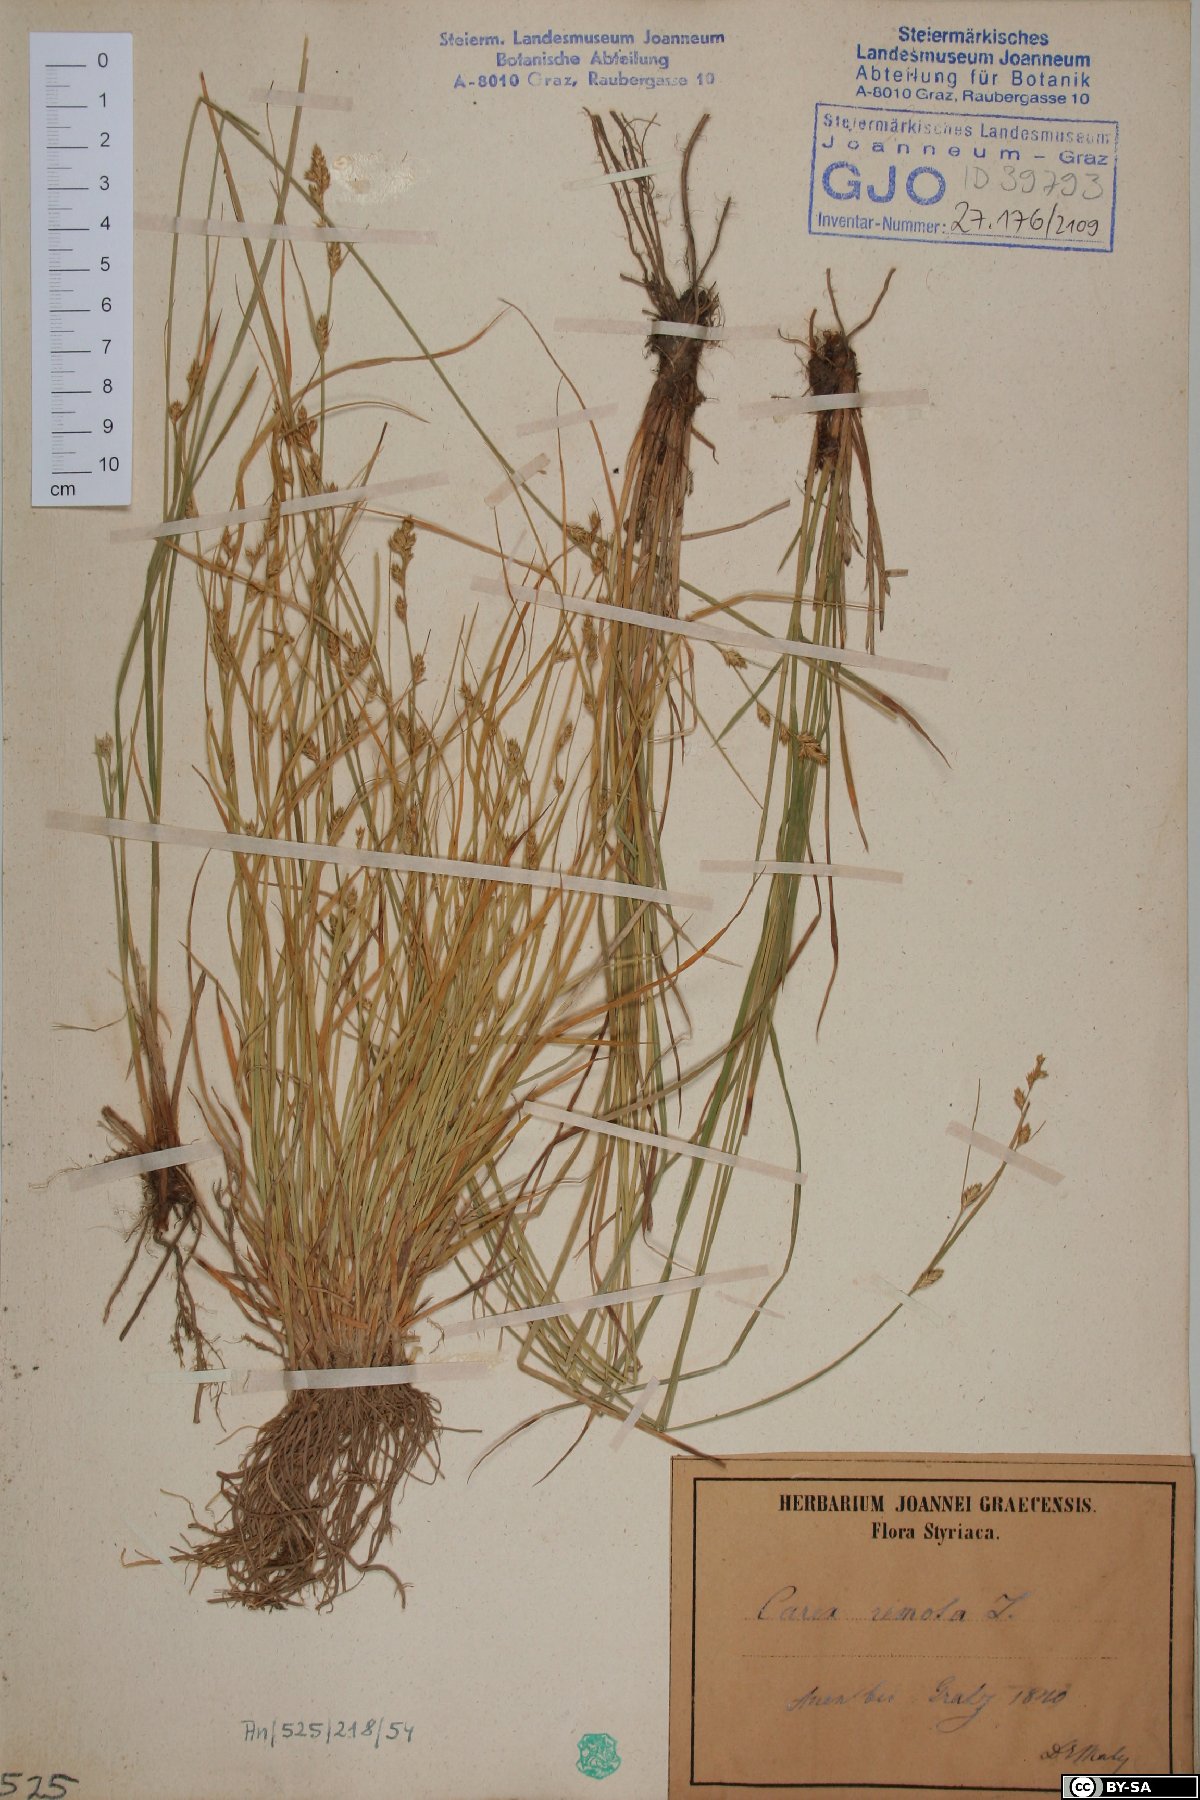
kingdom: Plantae
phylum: Tracheophyta
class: Liliopsida
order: Poales
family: Cyperaceae
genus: Carex
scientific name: Carex remota
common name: Remote sedge
